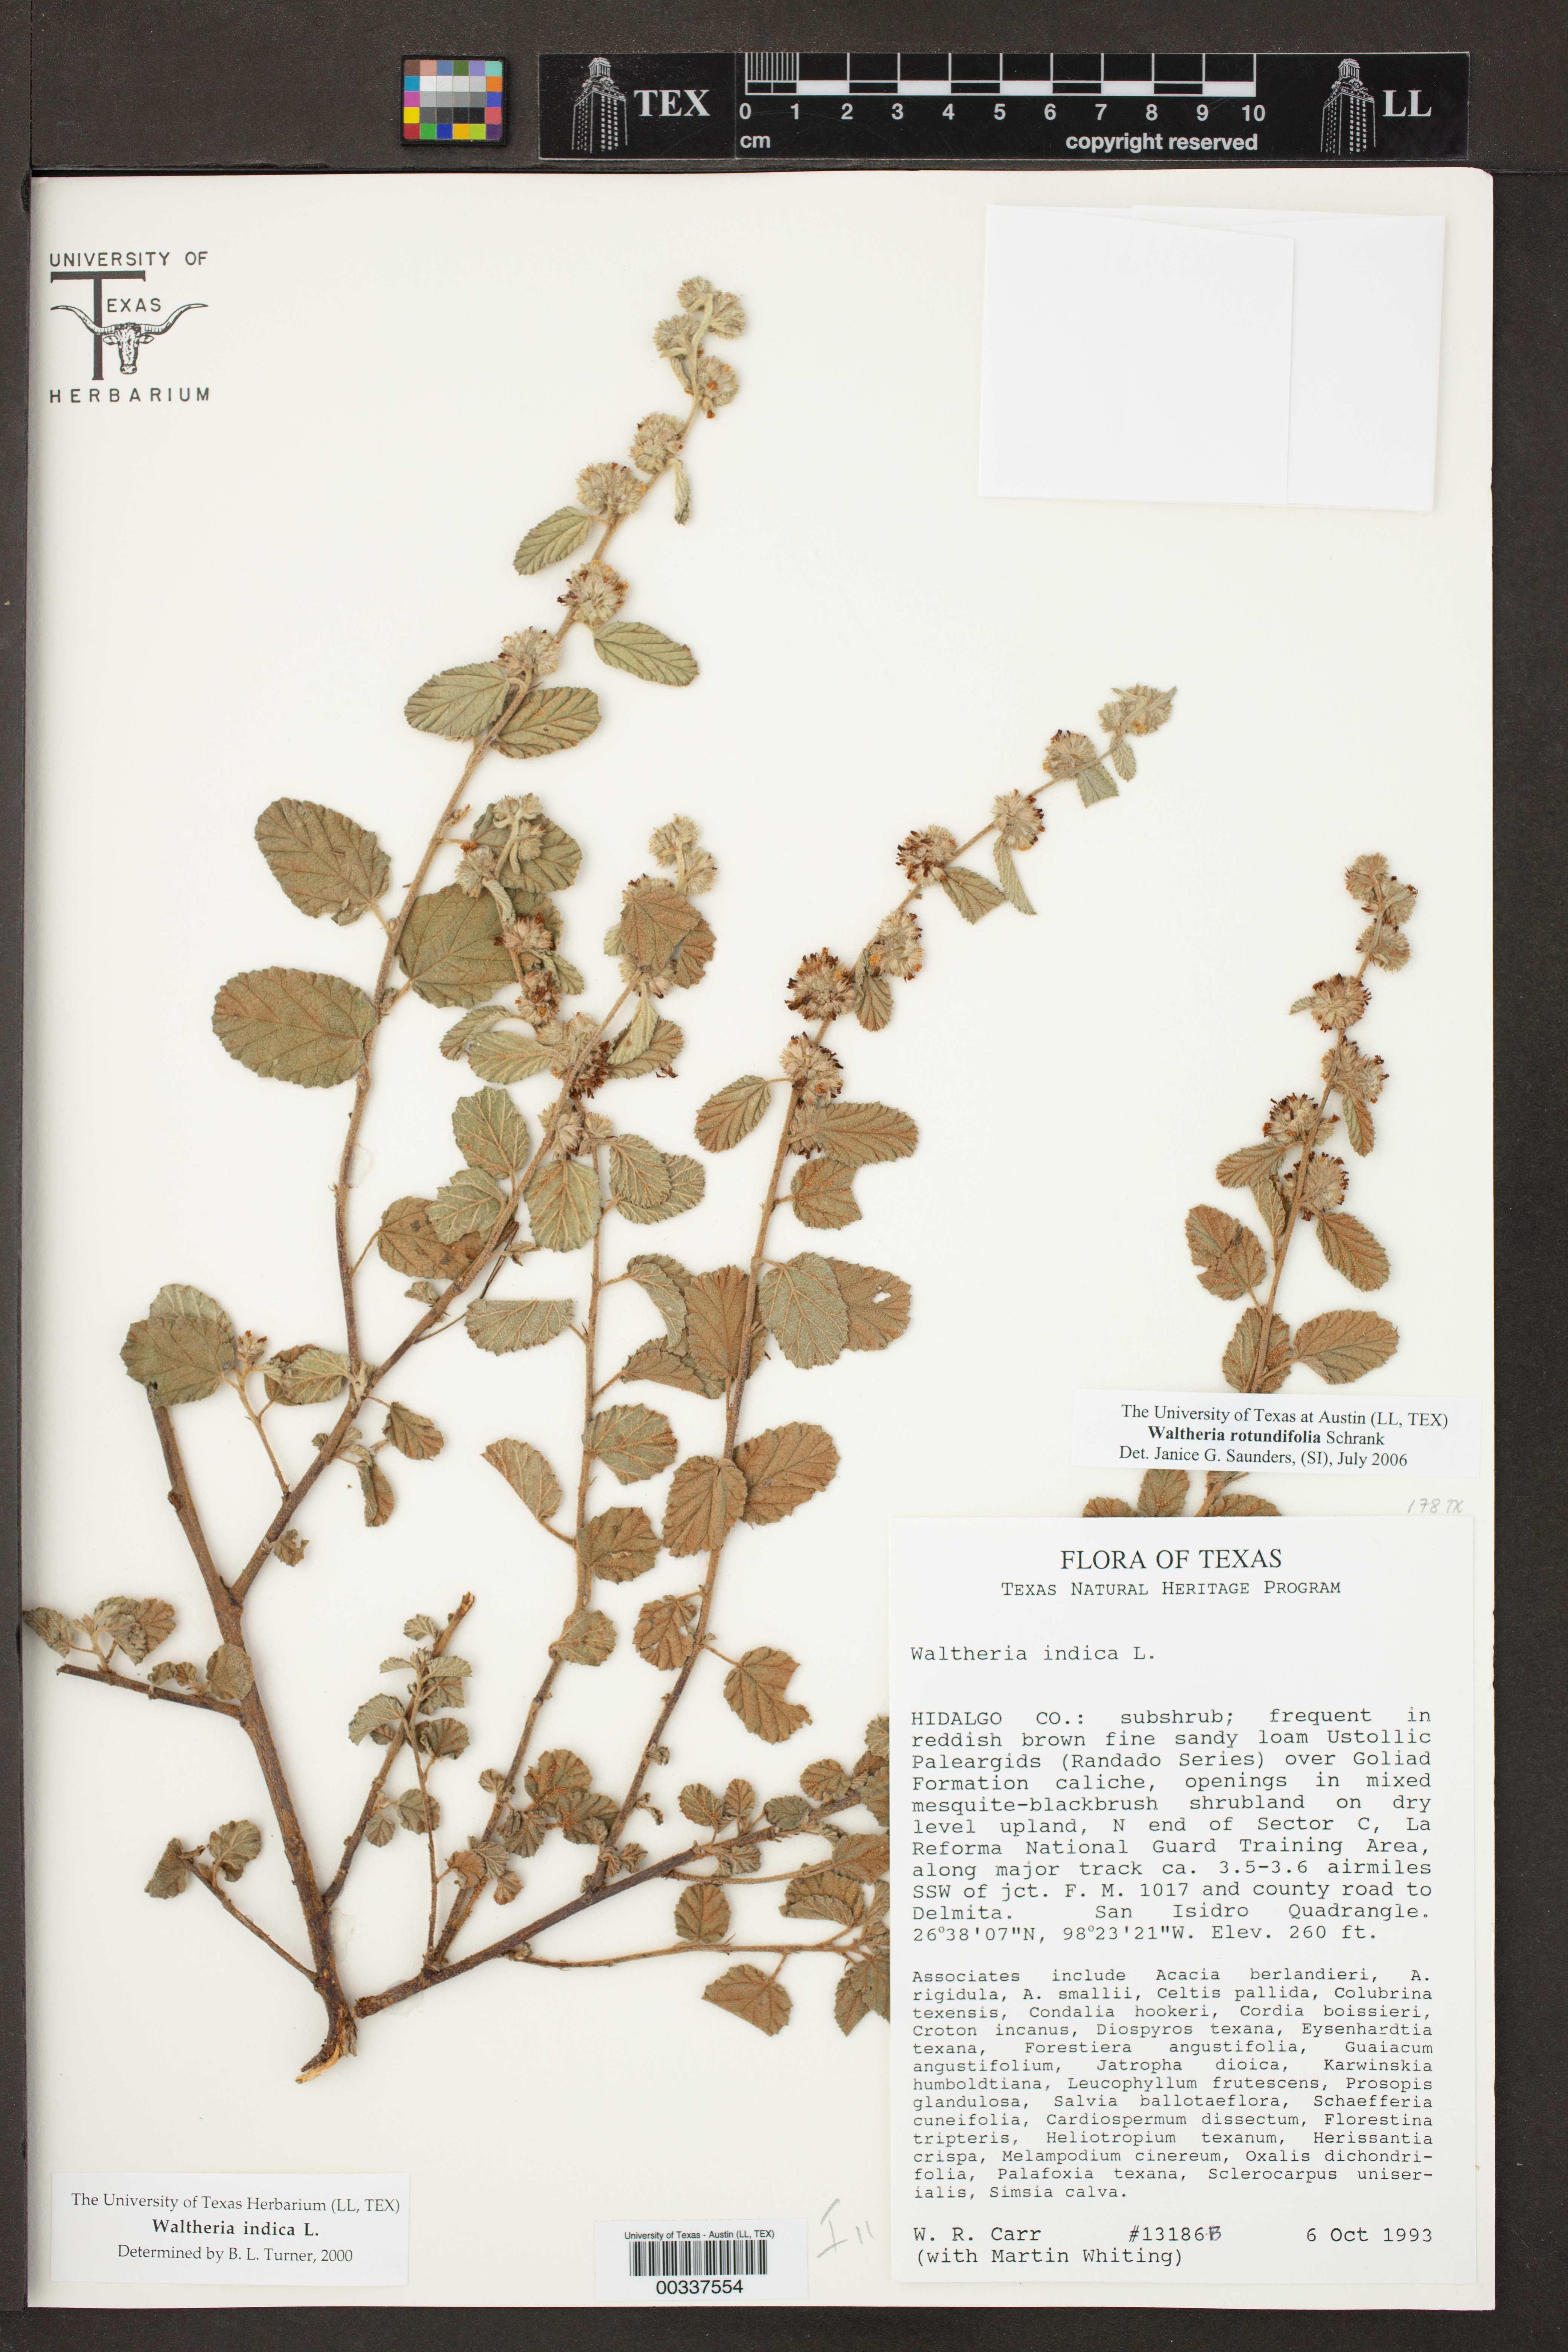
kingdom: Plantae
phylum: Tracheophyta
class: Magnoliopsida
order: Malvales
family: Malvaceae
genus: Waltheria
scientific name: Waltheria rotundifolia
